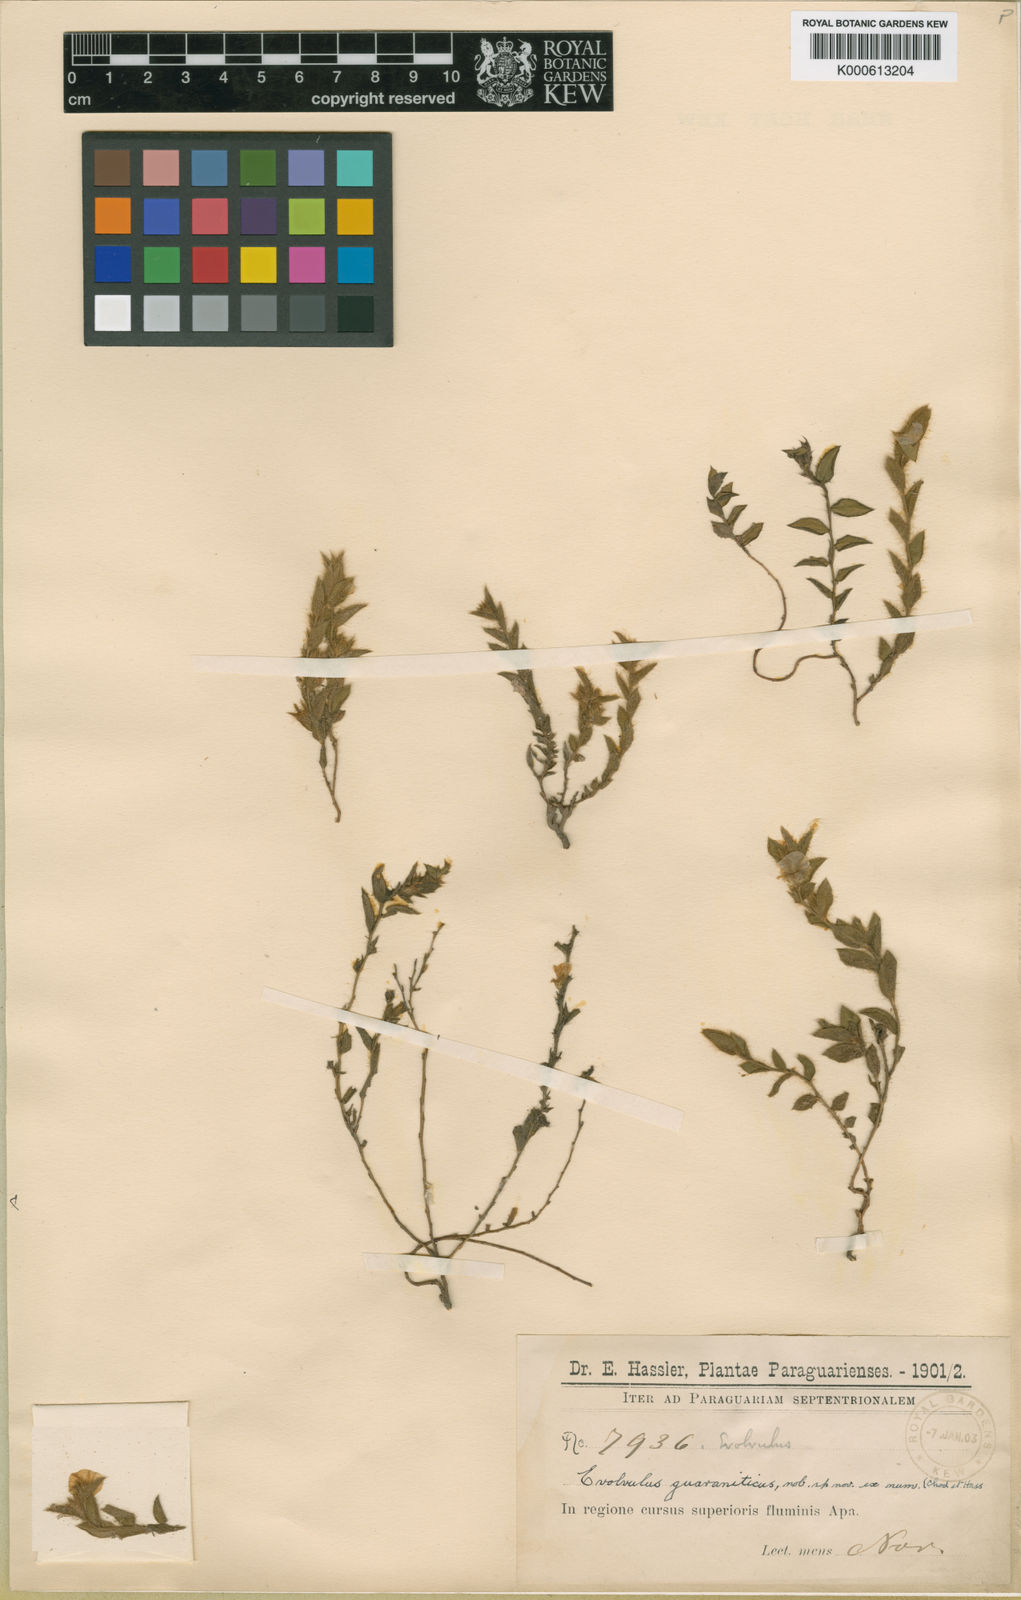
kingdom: Plantae
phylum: Tracheophyta
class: Magnoliopsida
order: Solanales
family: Convolvulaceae
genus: Evolvulus
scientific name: Evolvulus chrysotrichos
